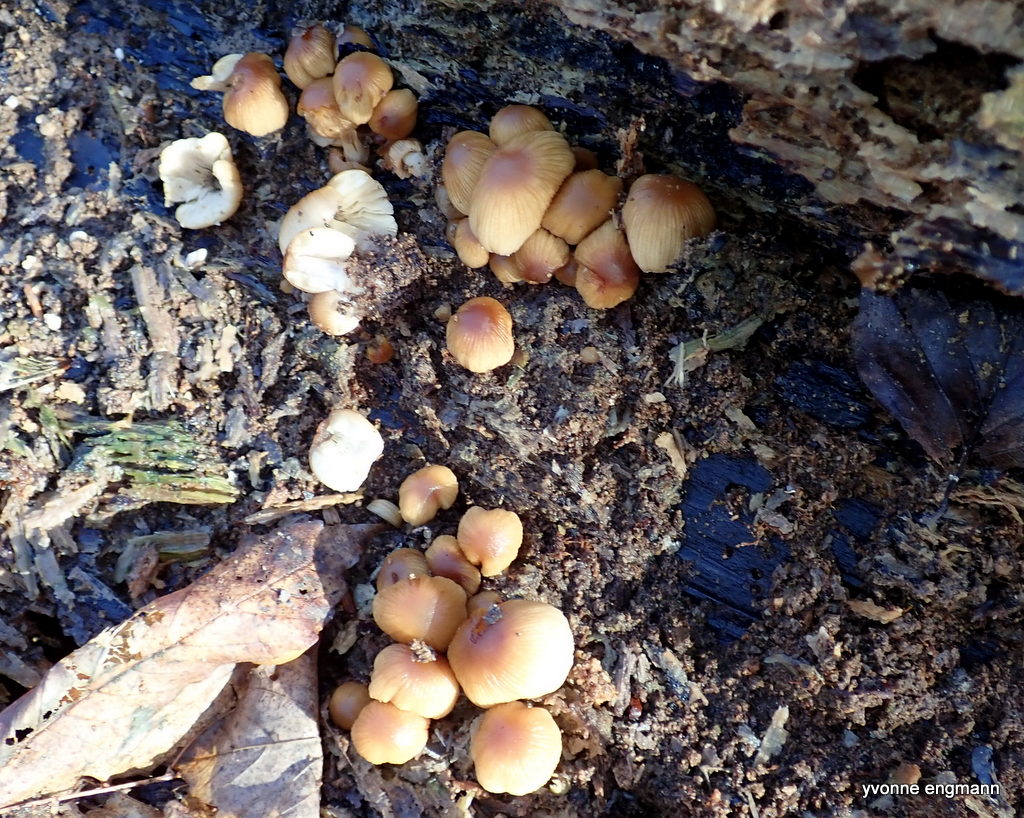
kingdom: Fungi
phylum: Basidiomycota
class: Agaricomycetes
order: Agaricales
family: Psathyrellaceae
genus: Coprinellus
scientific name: Coprinellus micaceus
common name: glimmer-blækhat
